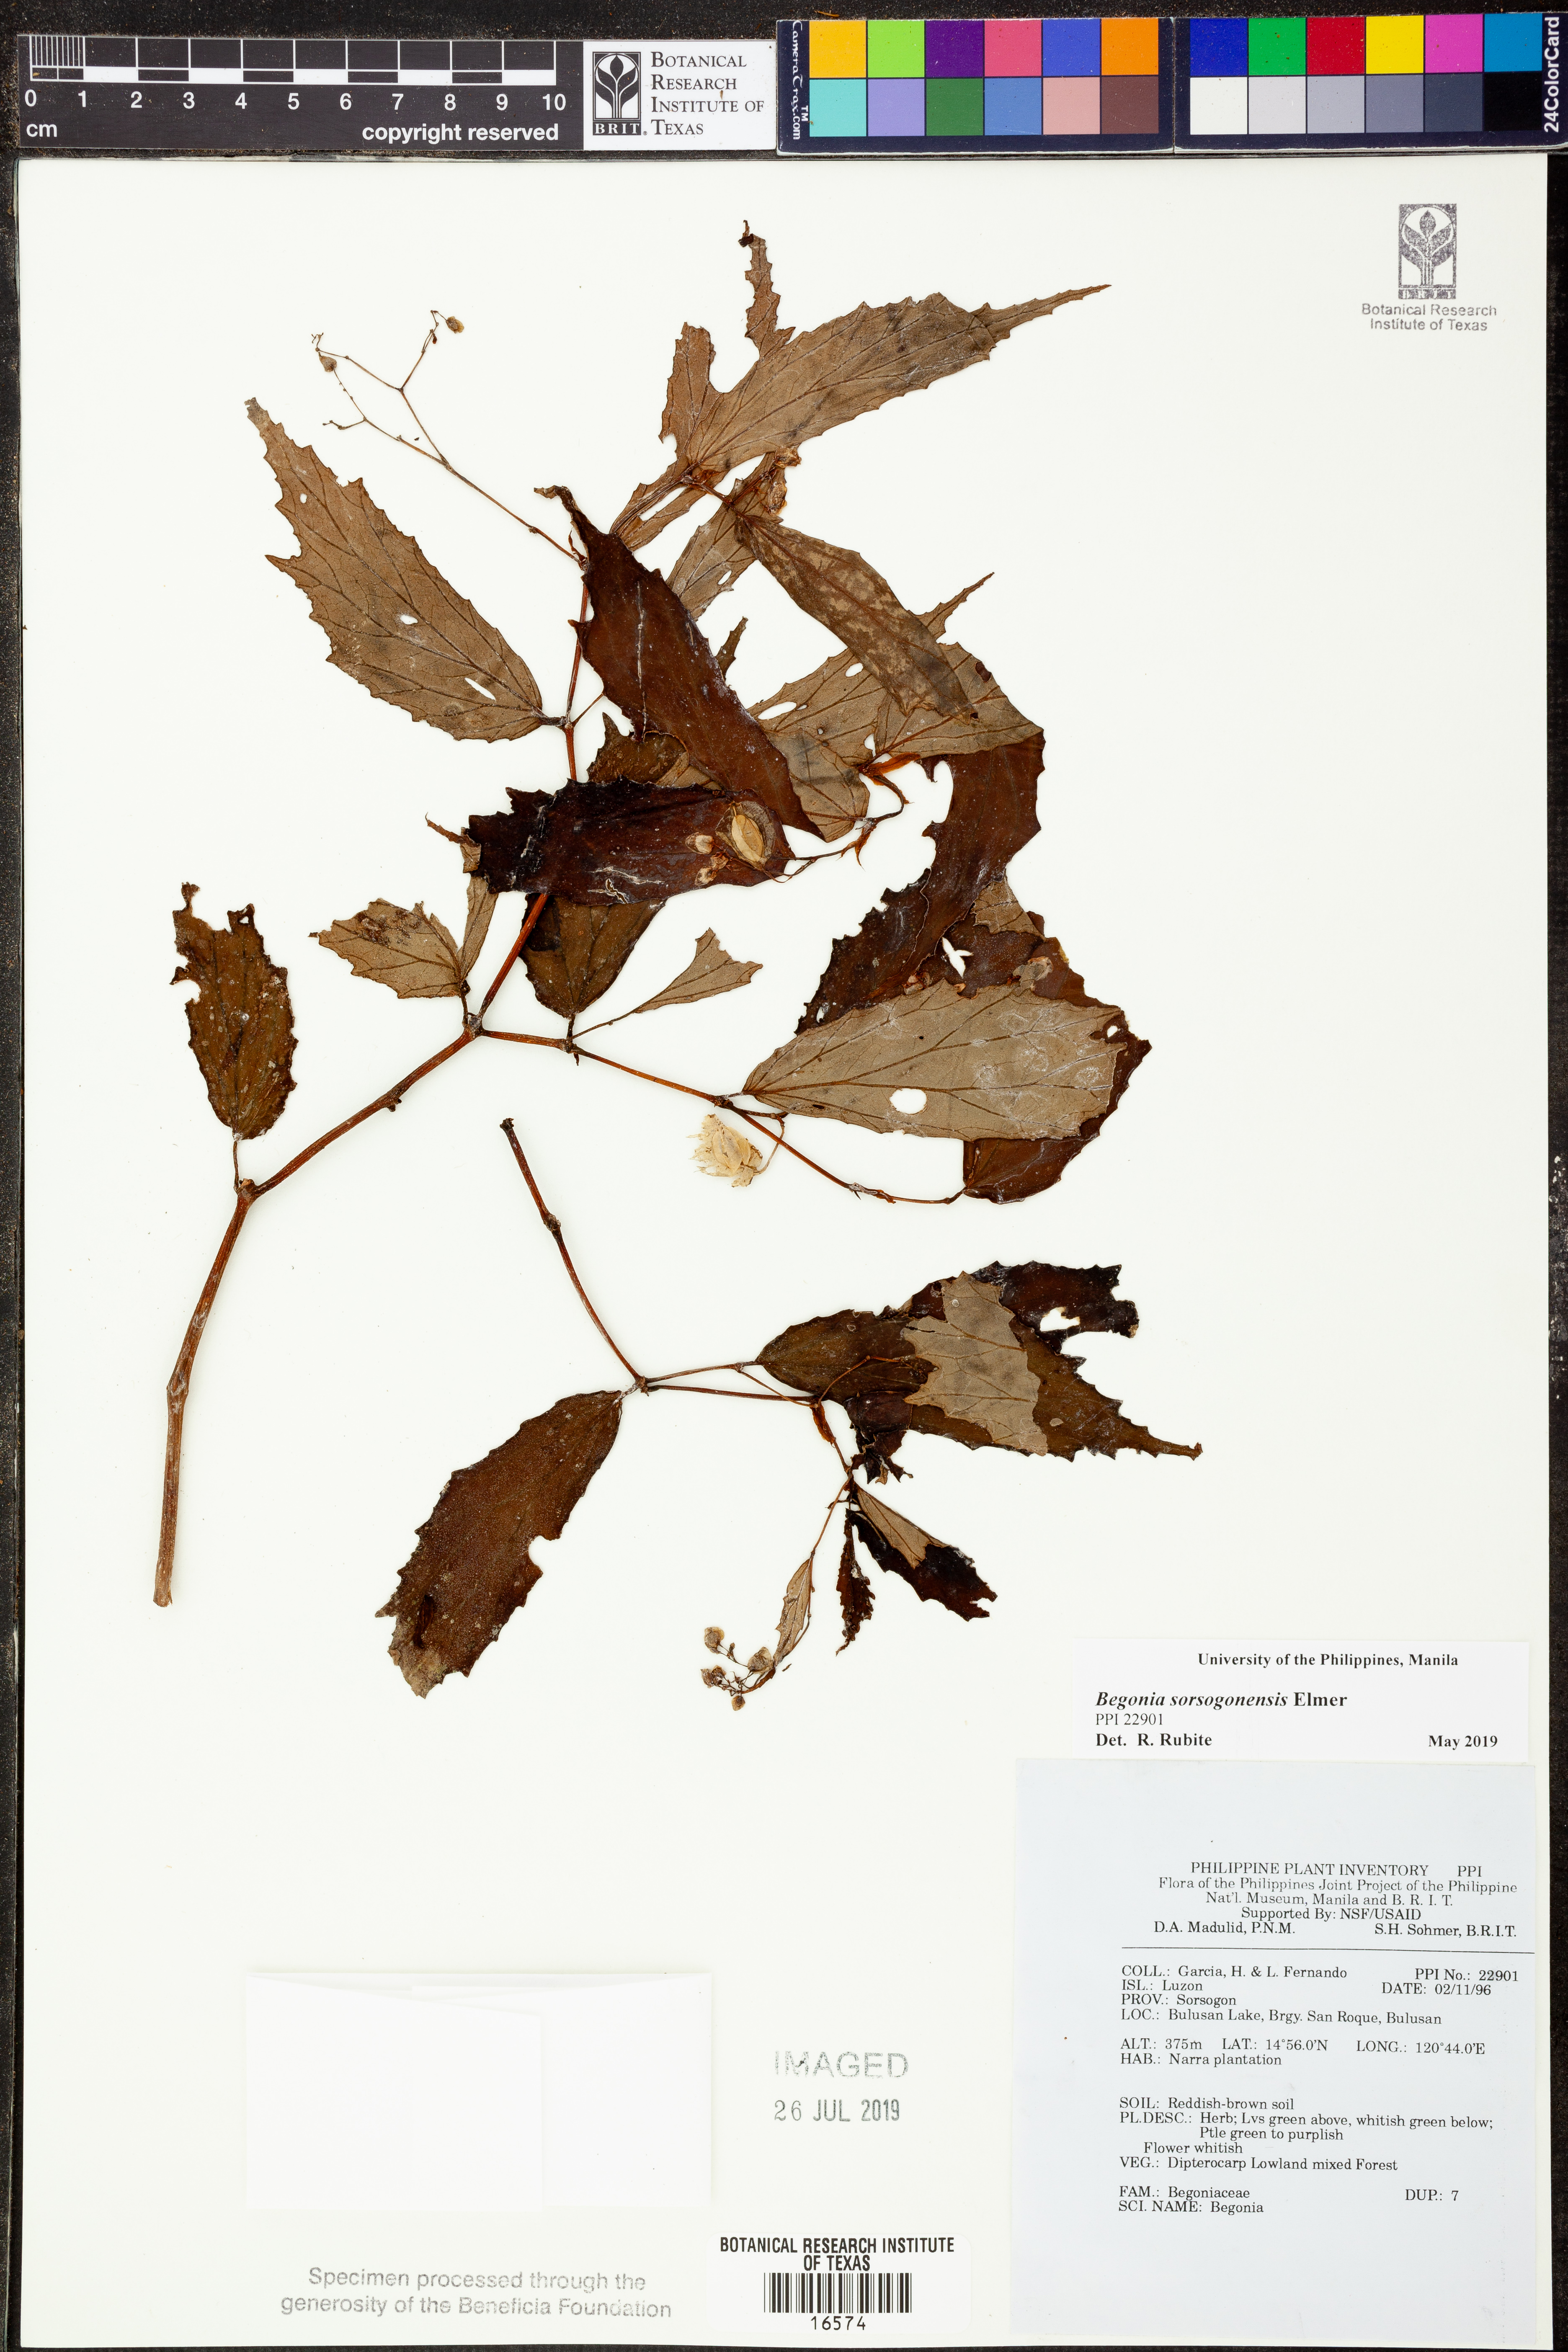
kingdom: Plantae
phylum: Tracheophyta
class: Magnoliopsida
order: Cucurbitales
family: Begoniaceae
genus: Begonia
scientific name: Begonia
